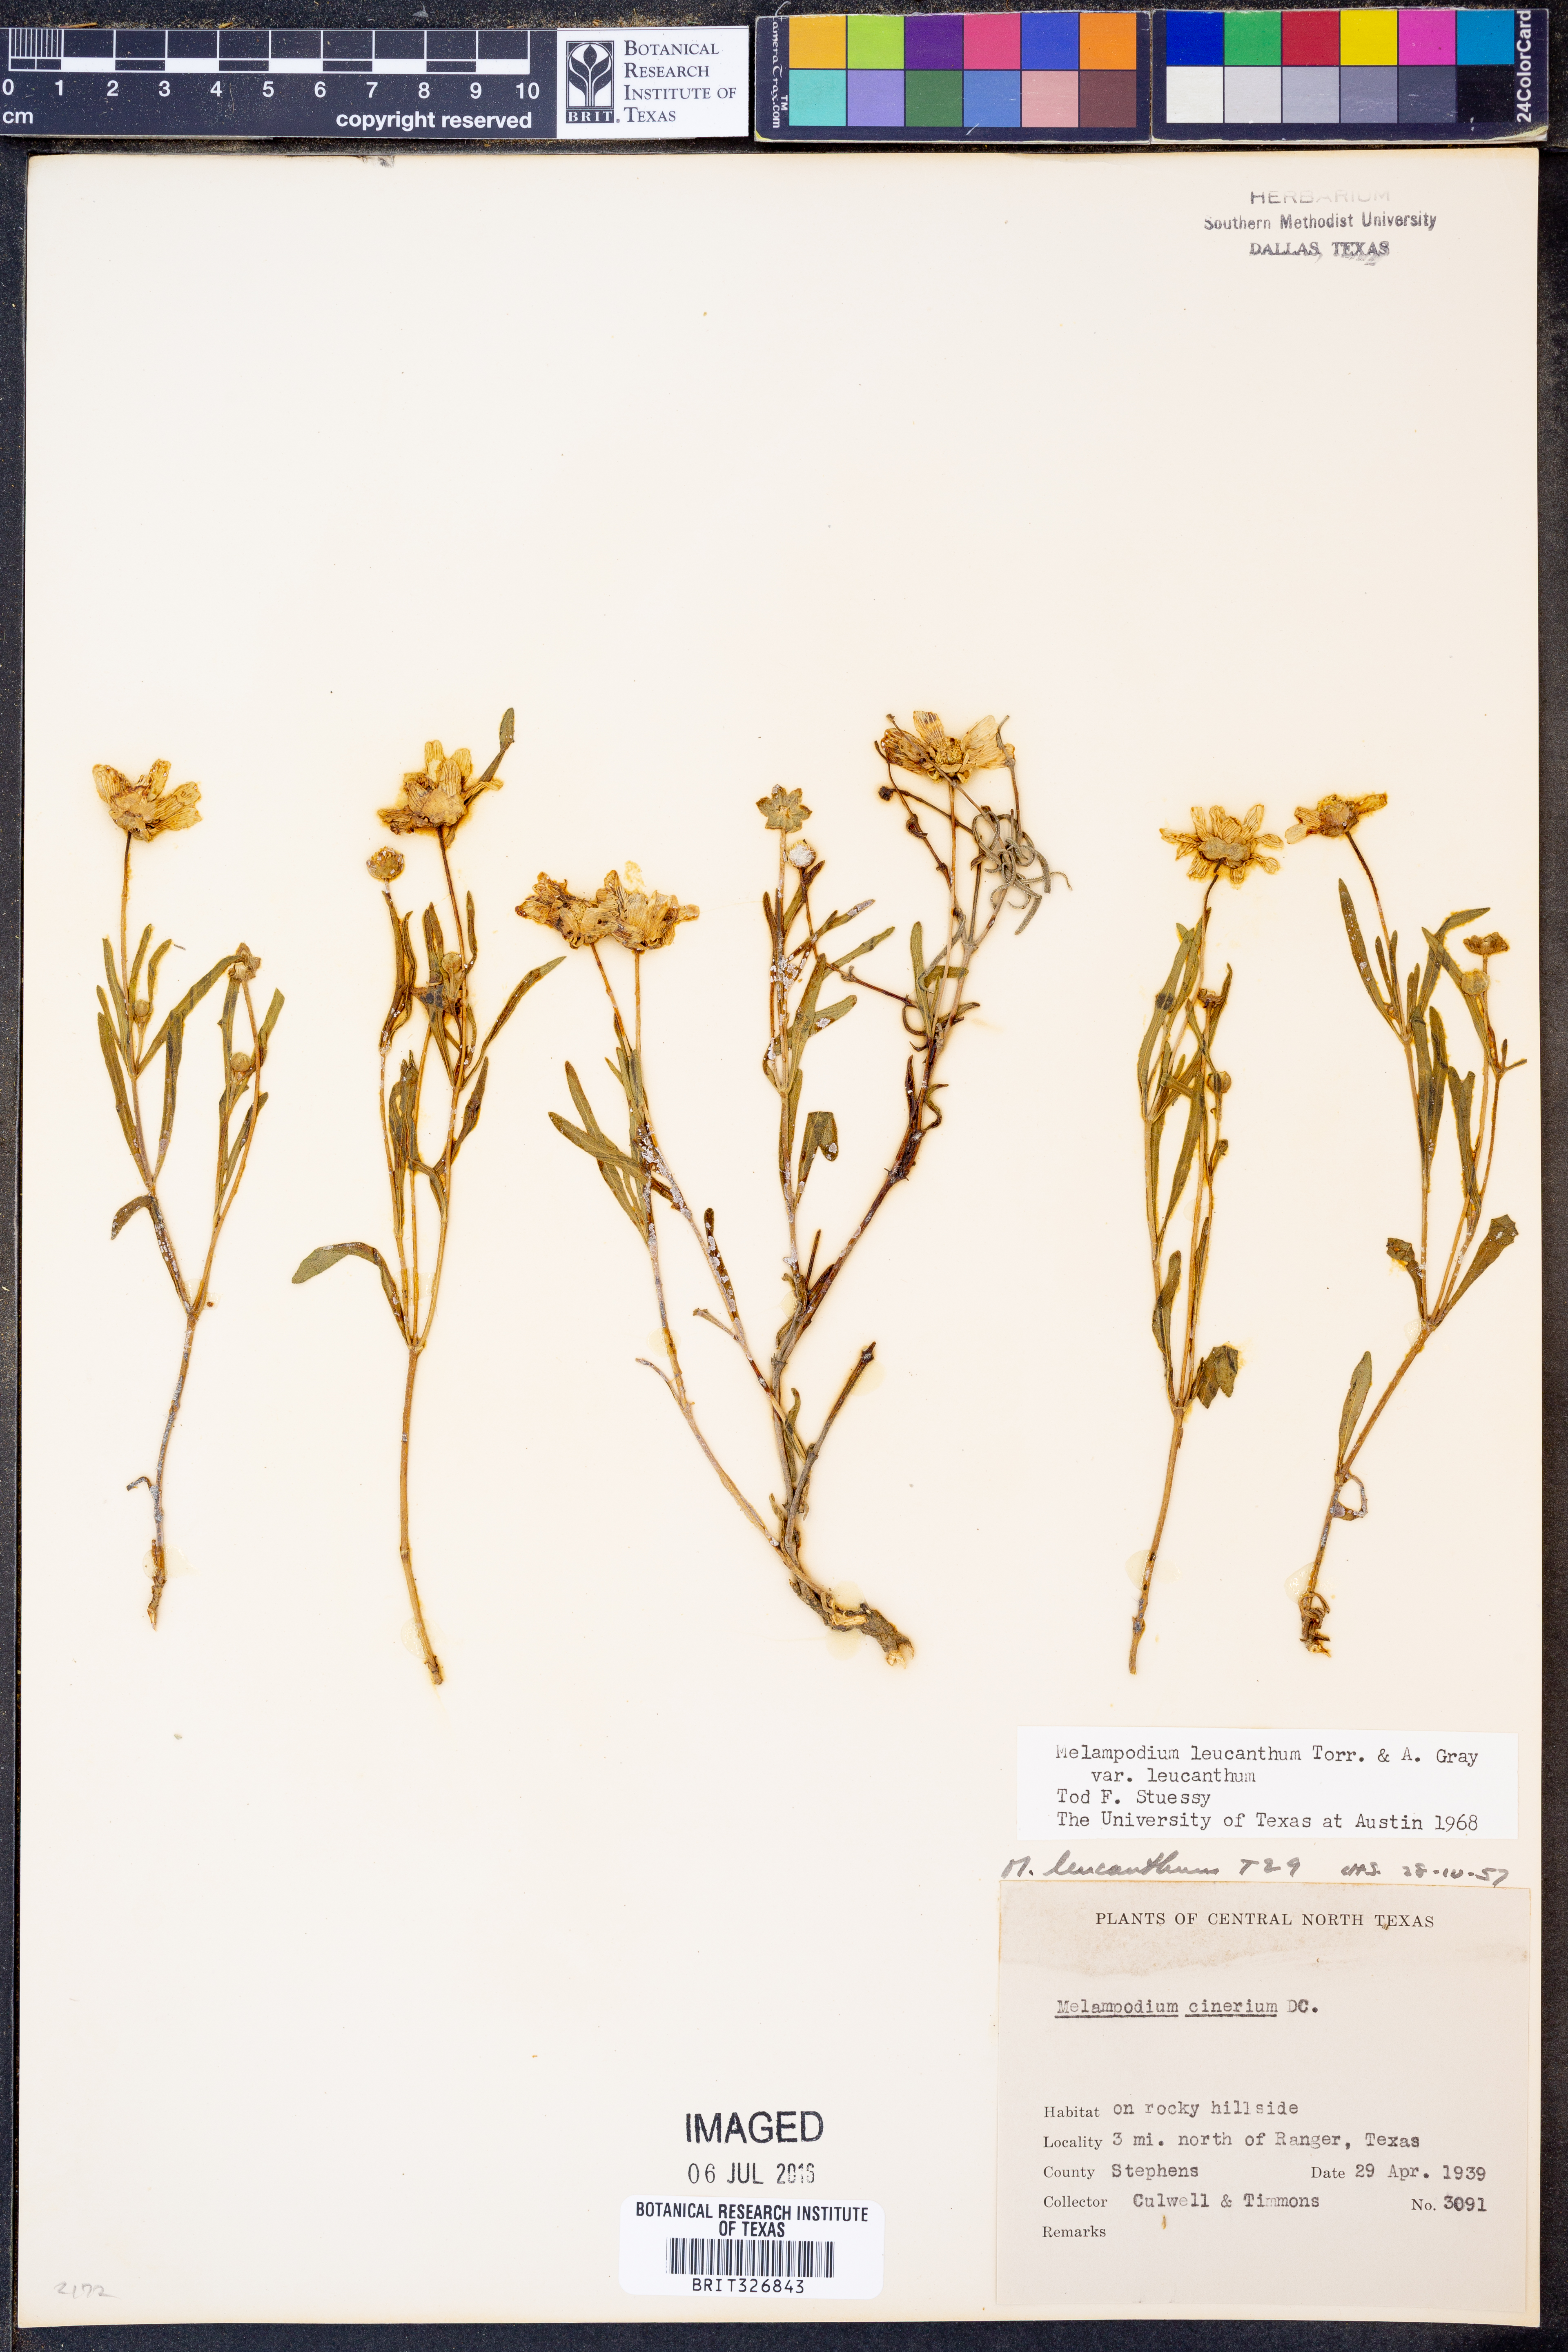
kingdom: Plantae
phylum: Tracheophyta
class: Magnoliopsida
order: Asterales
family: Asteraceae
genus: Melampodium
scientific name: Melampodium leucanthum
